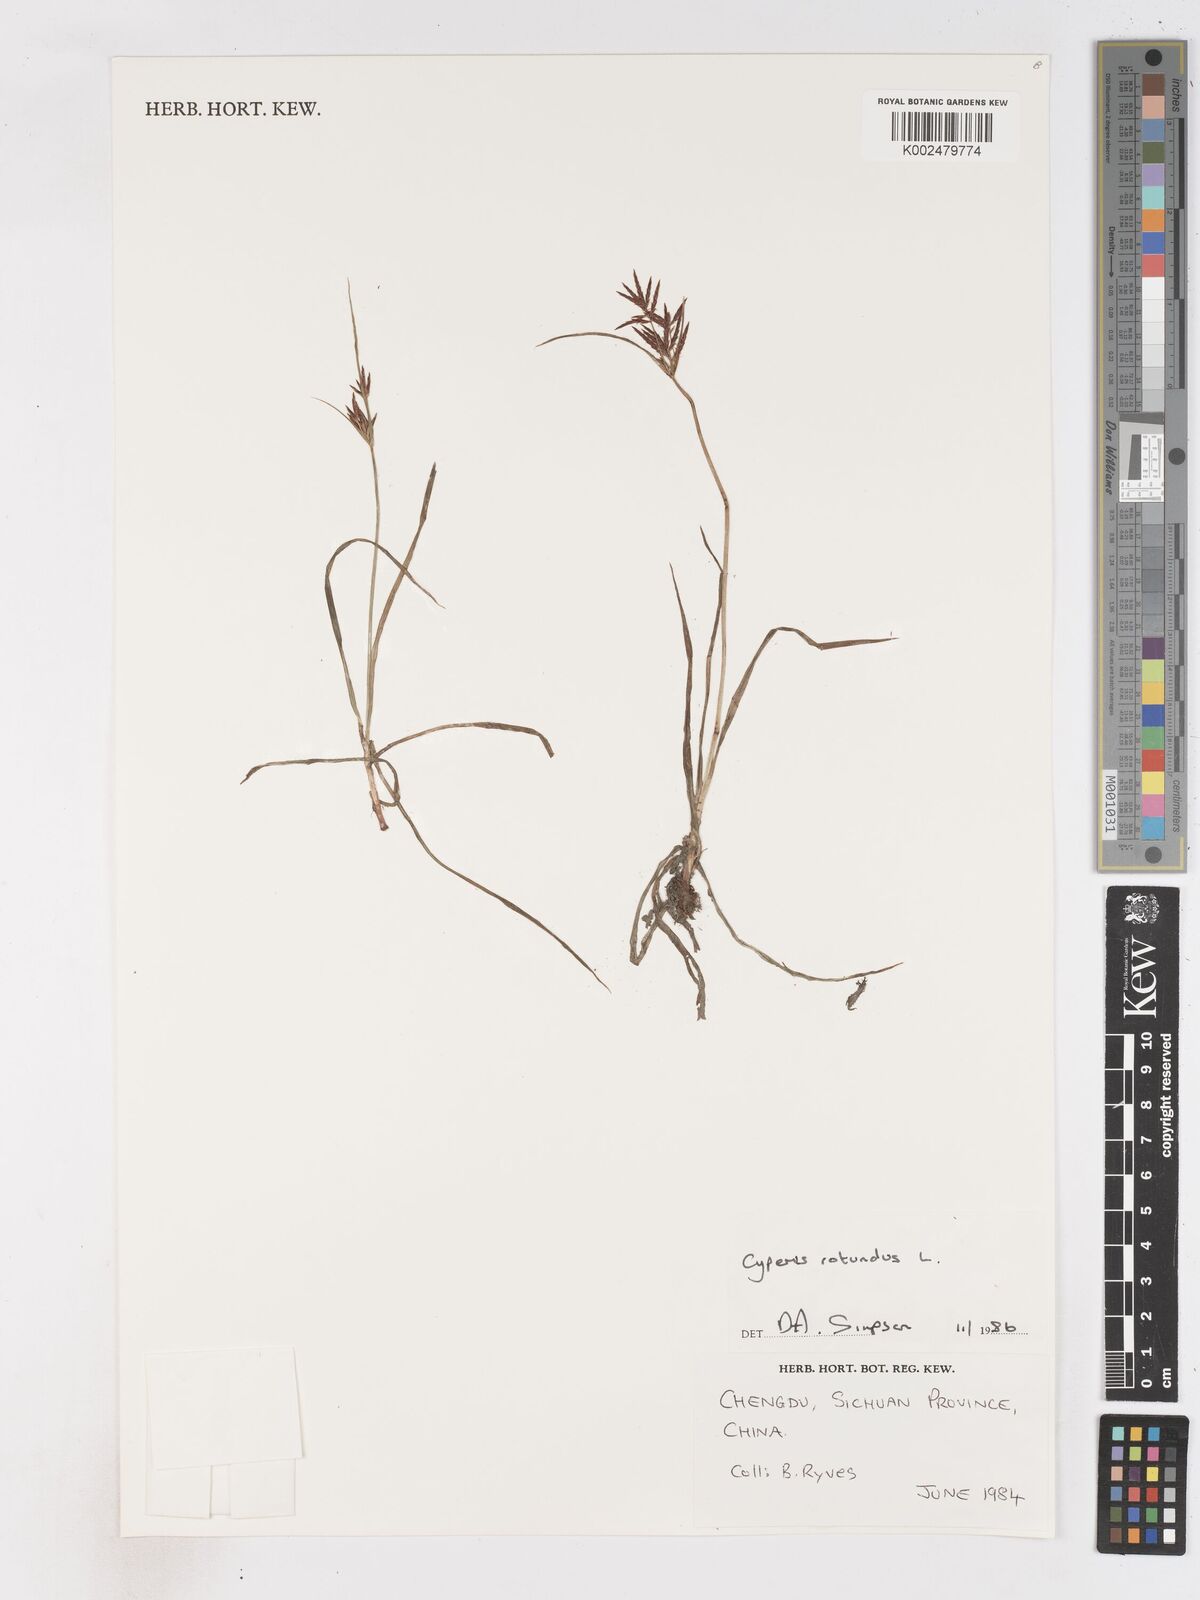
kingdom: Plantae
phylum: Tracheophyta
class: Liliopsida
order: Poales
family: Cyperaceae
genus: Cyperus
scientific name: Cyperus rotundus
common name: Nutgrass
